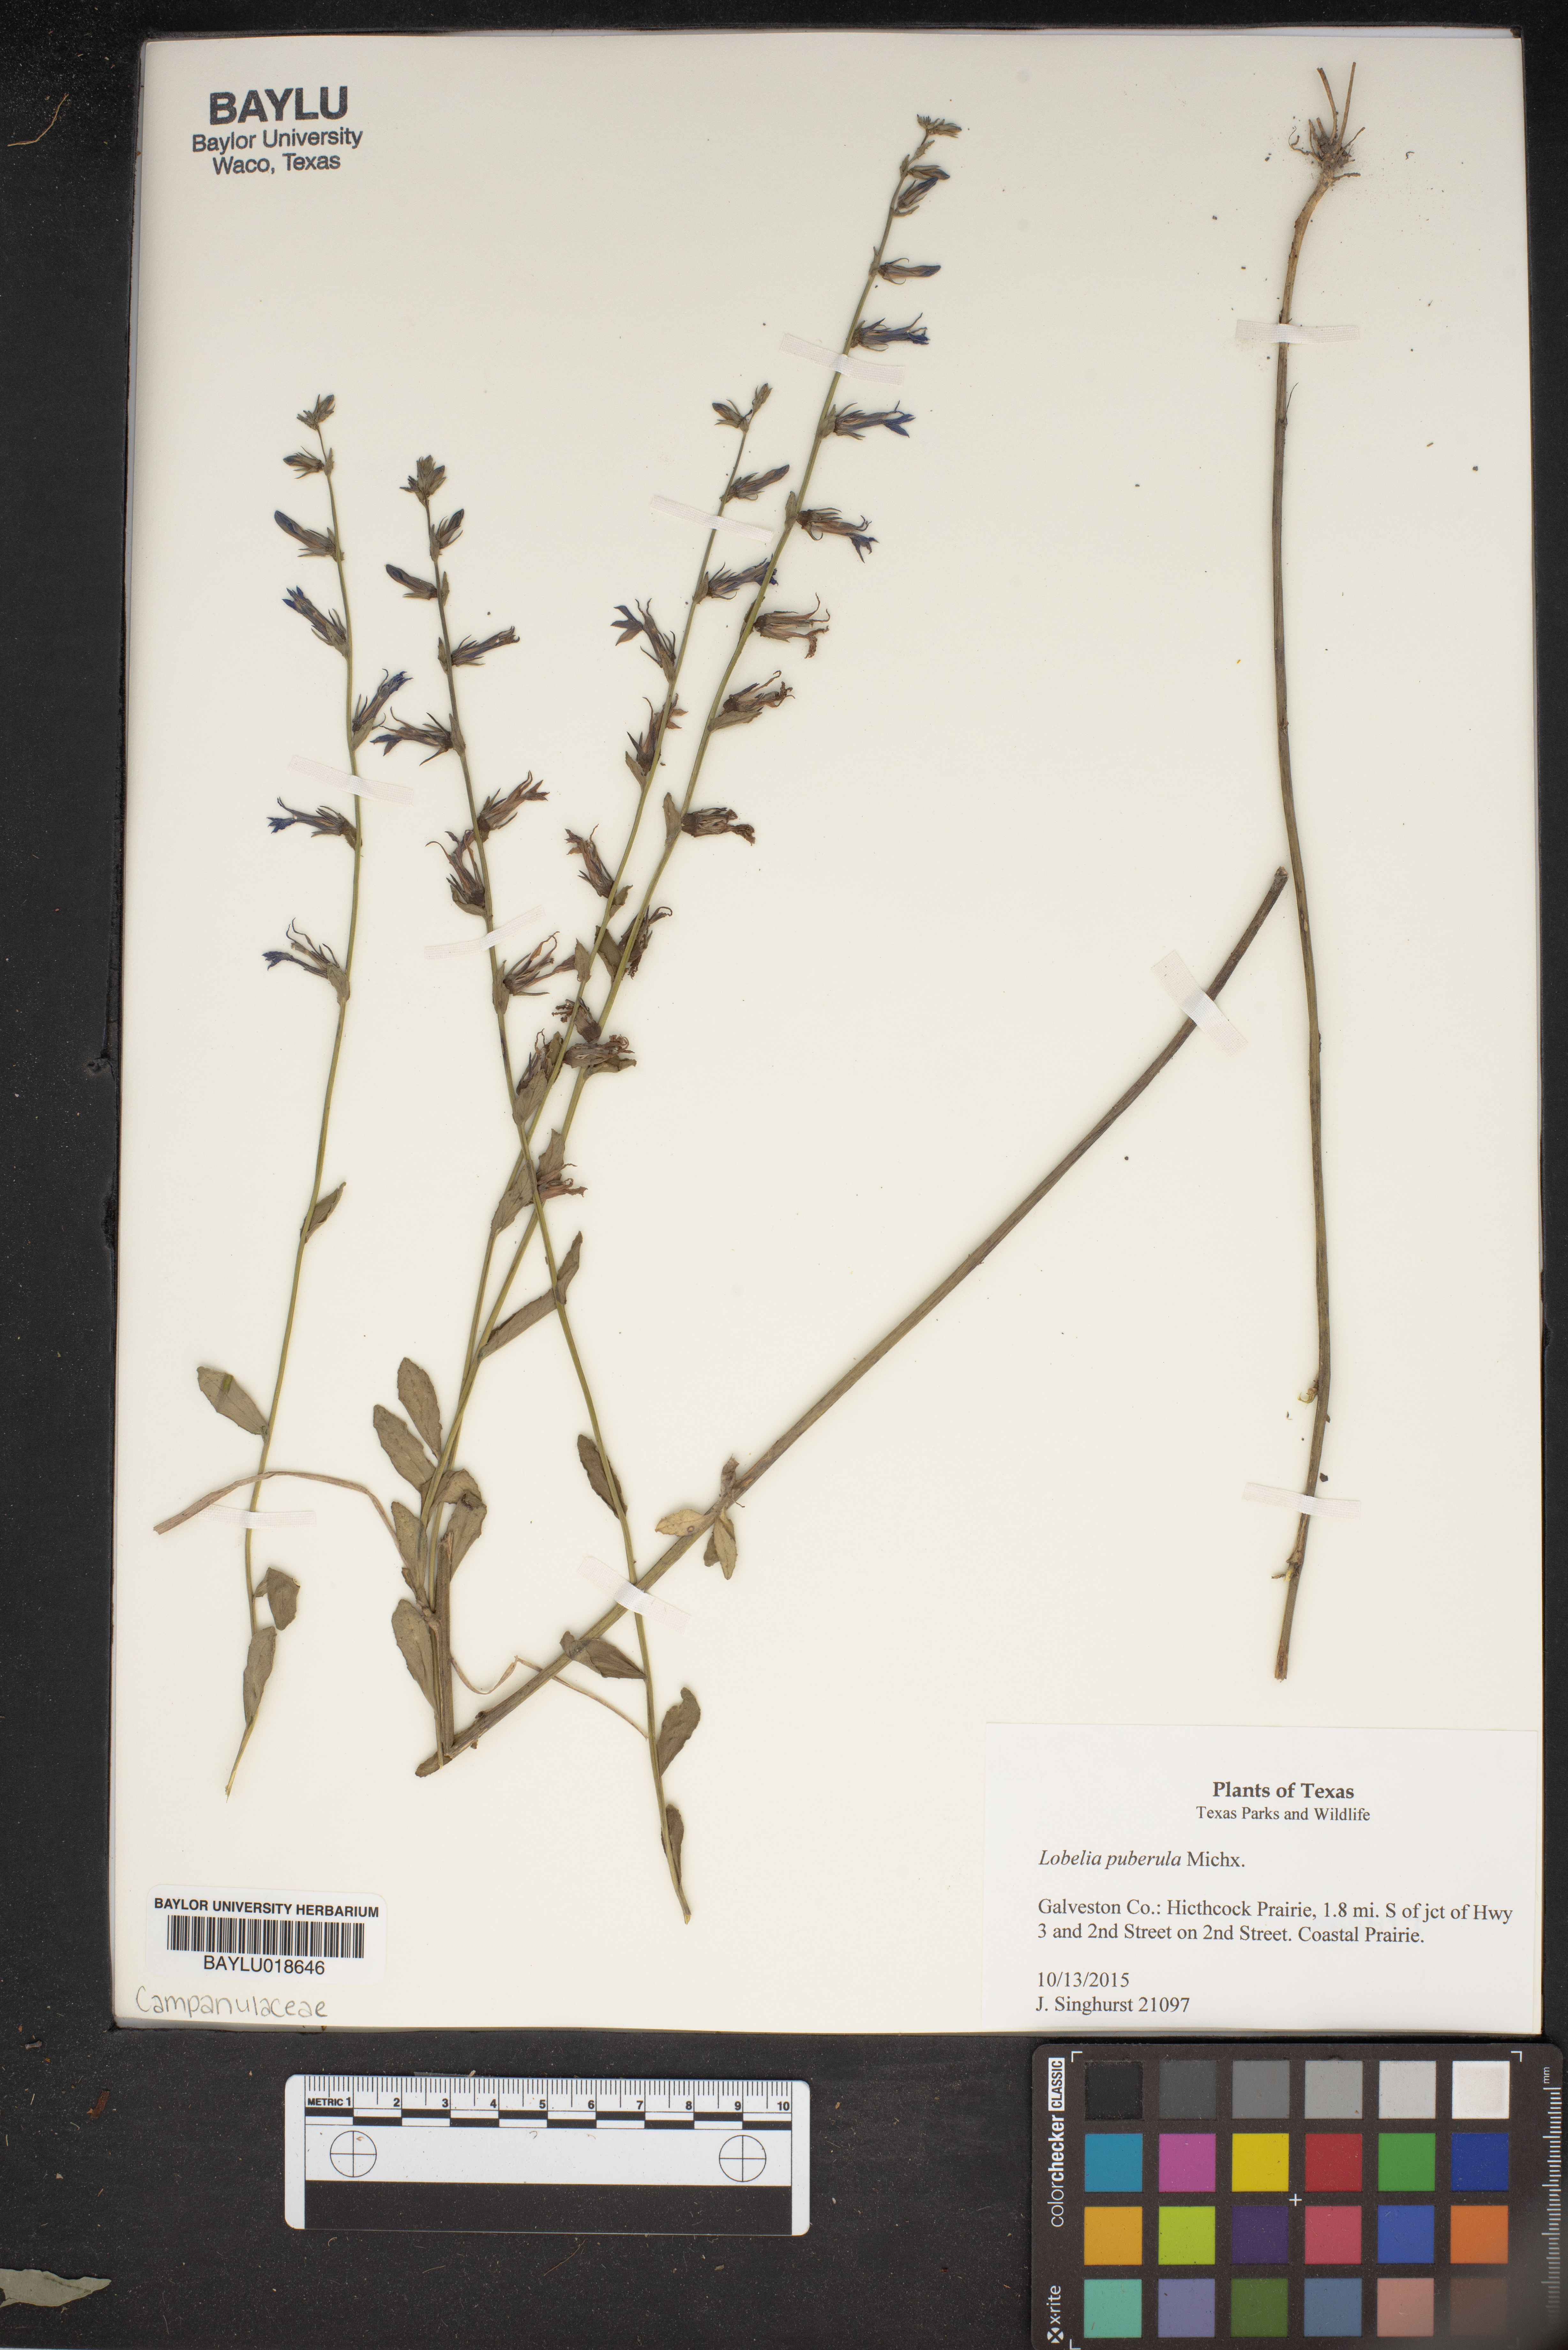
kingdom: Plantae
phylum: Tracheophyta
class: Magnoliopsida
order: Asterales
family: Campanulaceae
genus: Lobelia
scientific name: Lobelia puberula
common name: Purple dewdrop
